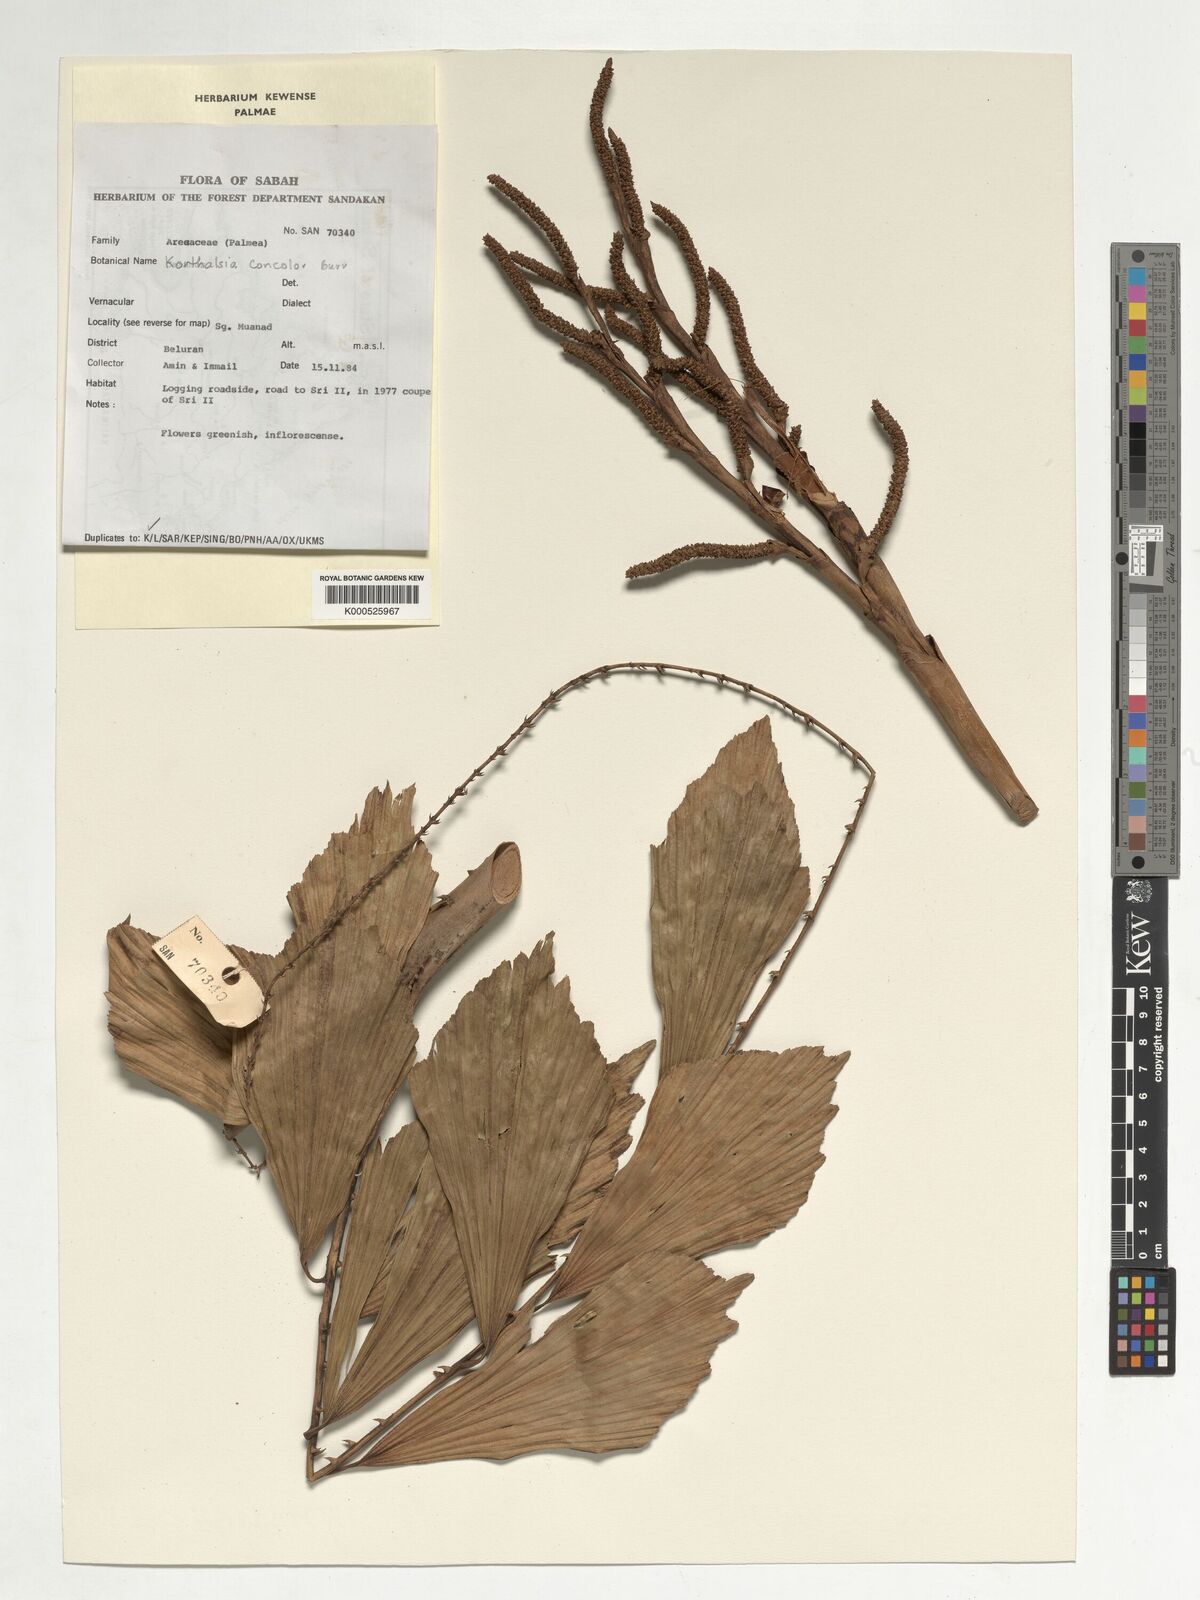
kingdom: Plantae
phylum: Tracheophyta
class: Liliopsida
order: Arecales
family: Arecaceae
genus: Korthalsia
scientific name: Korthalsia concolor
